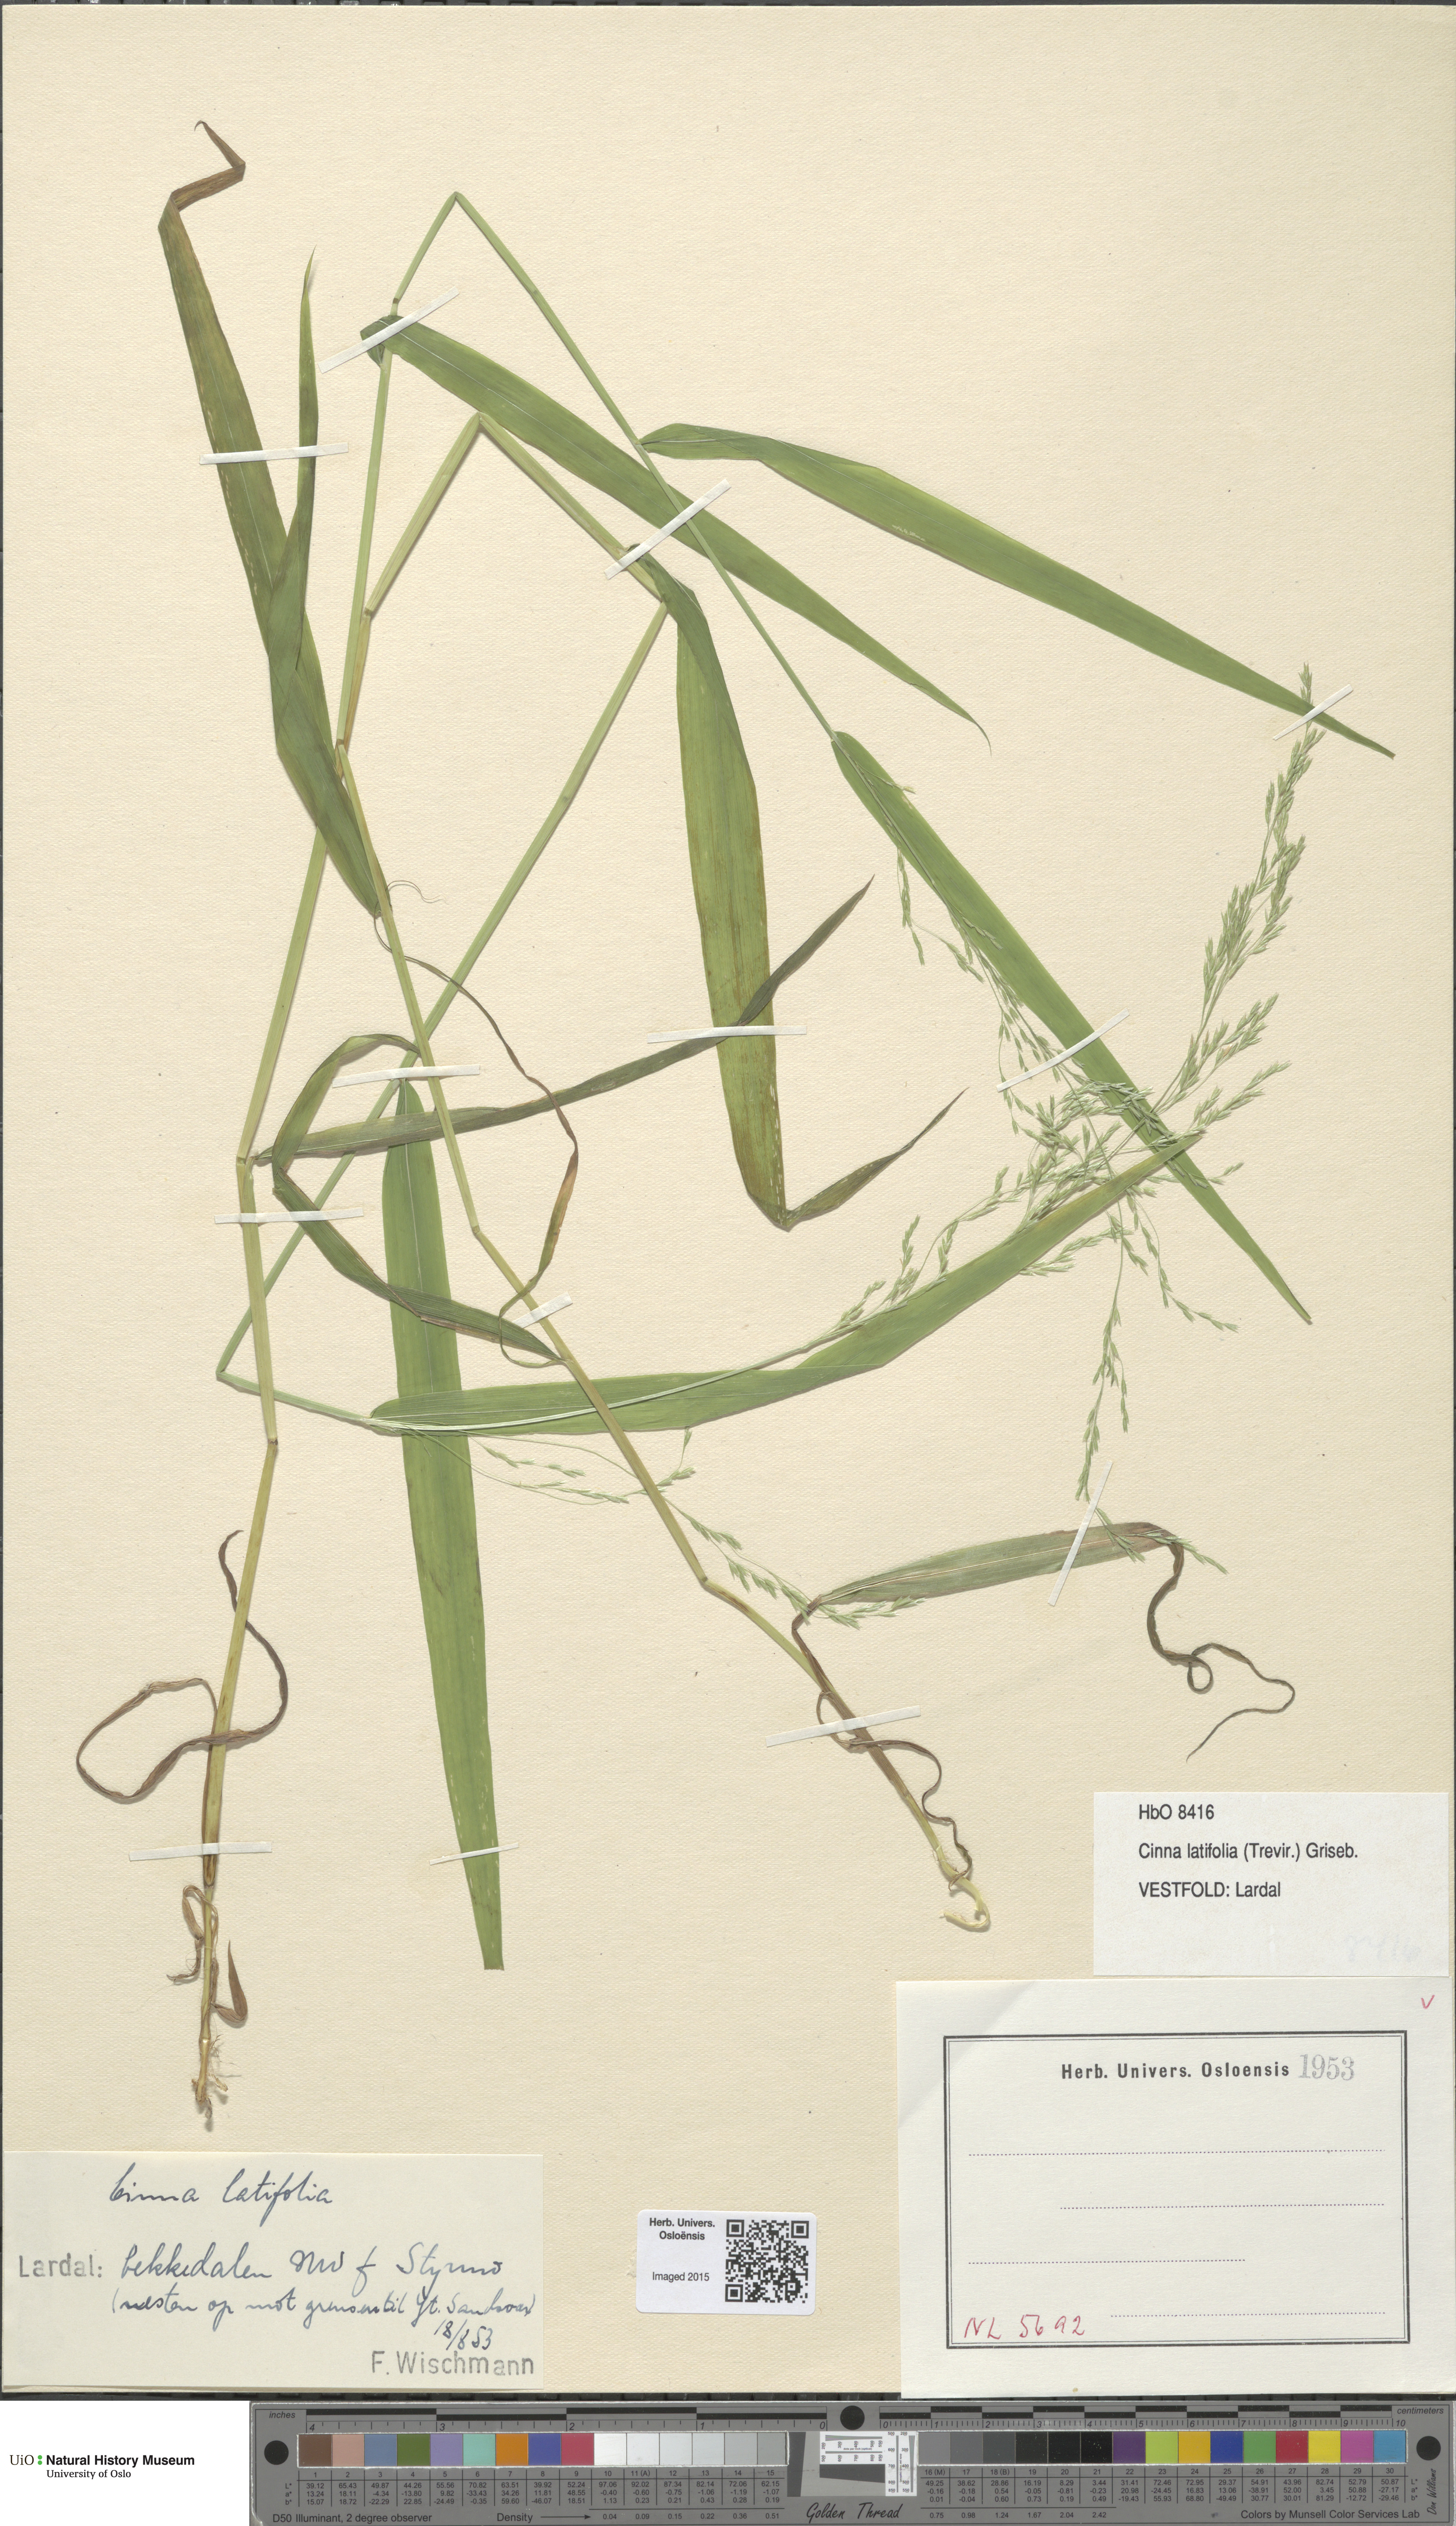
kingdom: Plantae
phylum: Tracheophyta
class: Liliopsida
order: Poales
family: Poaceae
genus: Cinna
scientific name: Cinna latifolia
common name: Drooping woodreed
